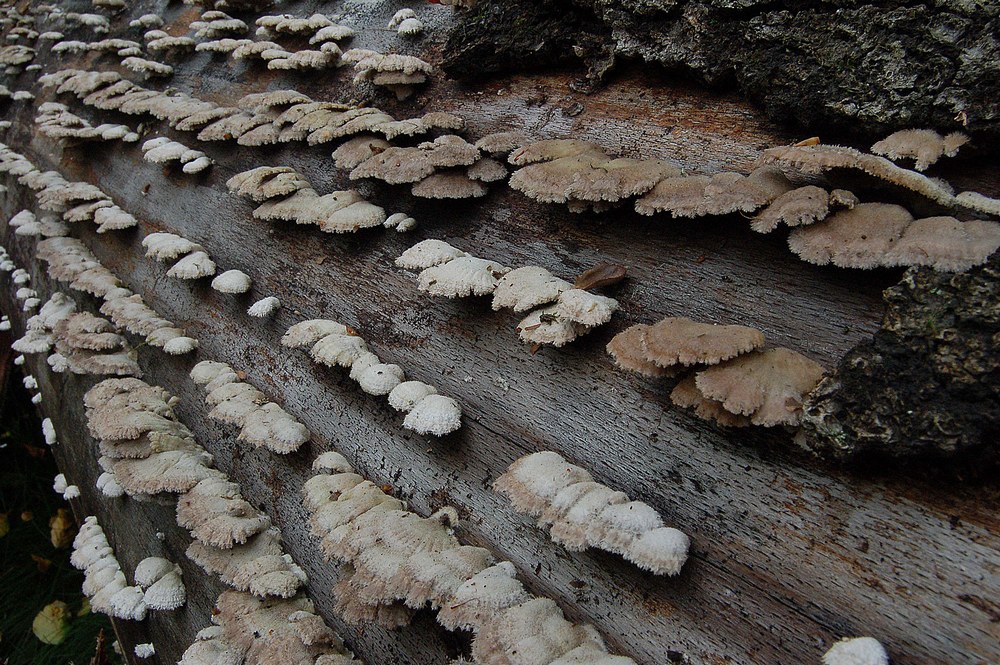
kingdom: Fungi
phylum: Basidiomycota
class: Agaricomycetes
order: Agaricales
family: Schizophyllaceae
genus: Schizophyllum
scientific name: Schizophyllum commune
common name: kløvblad
